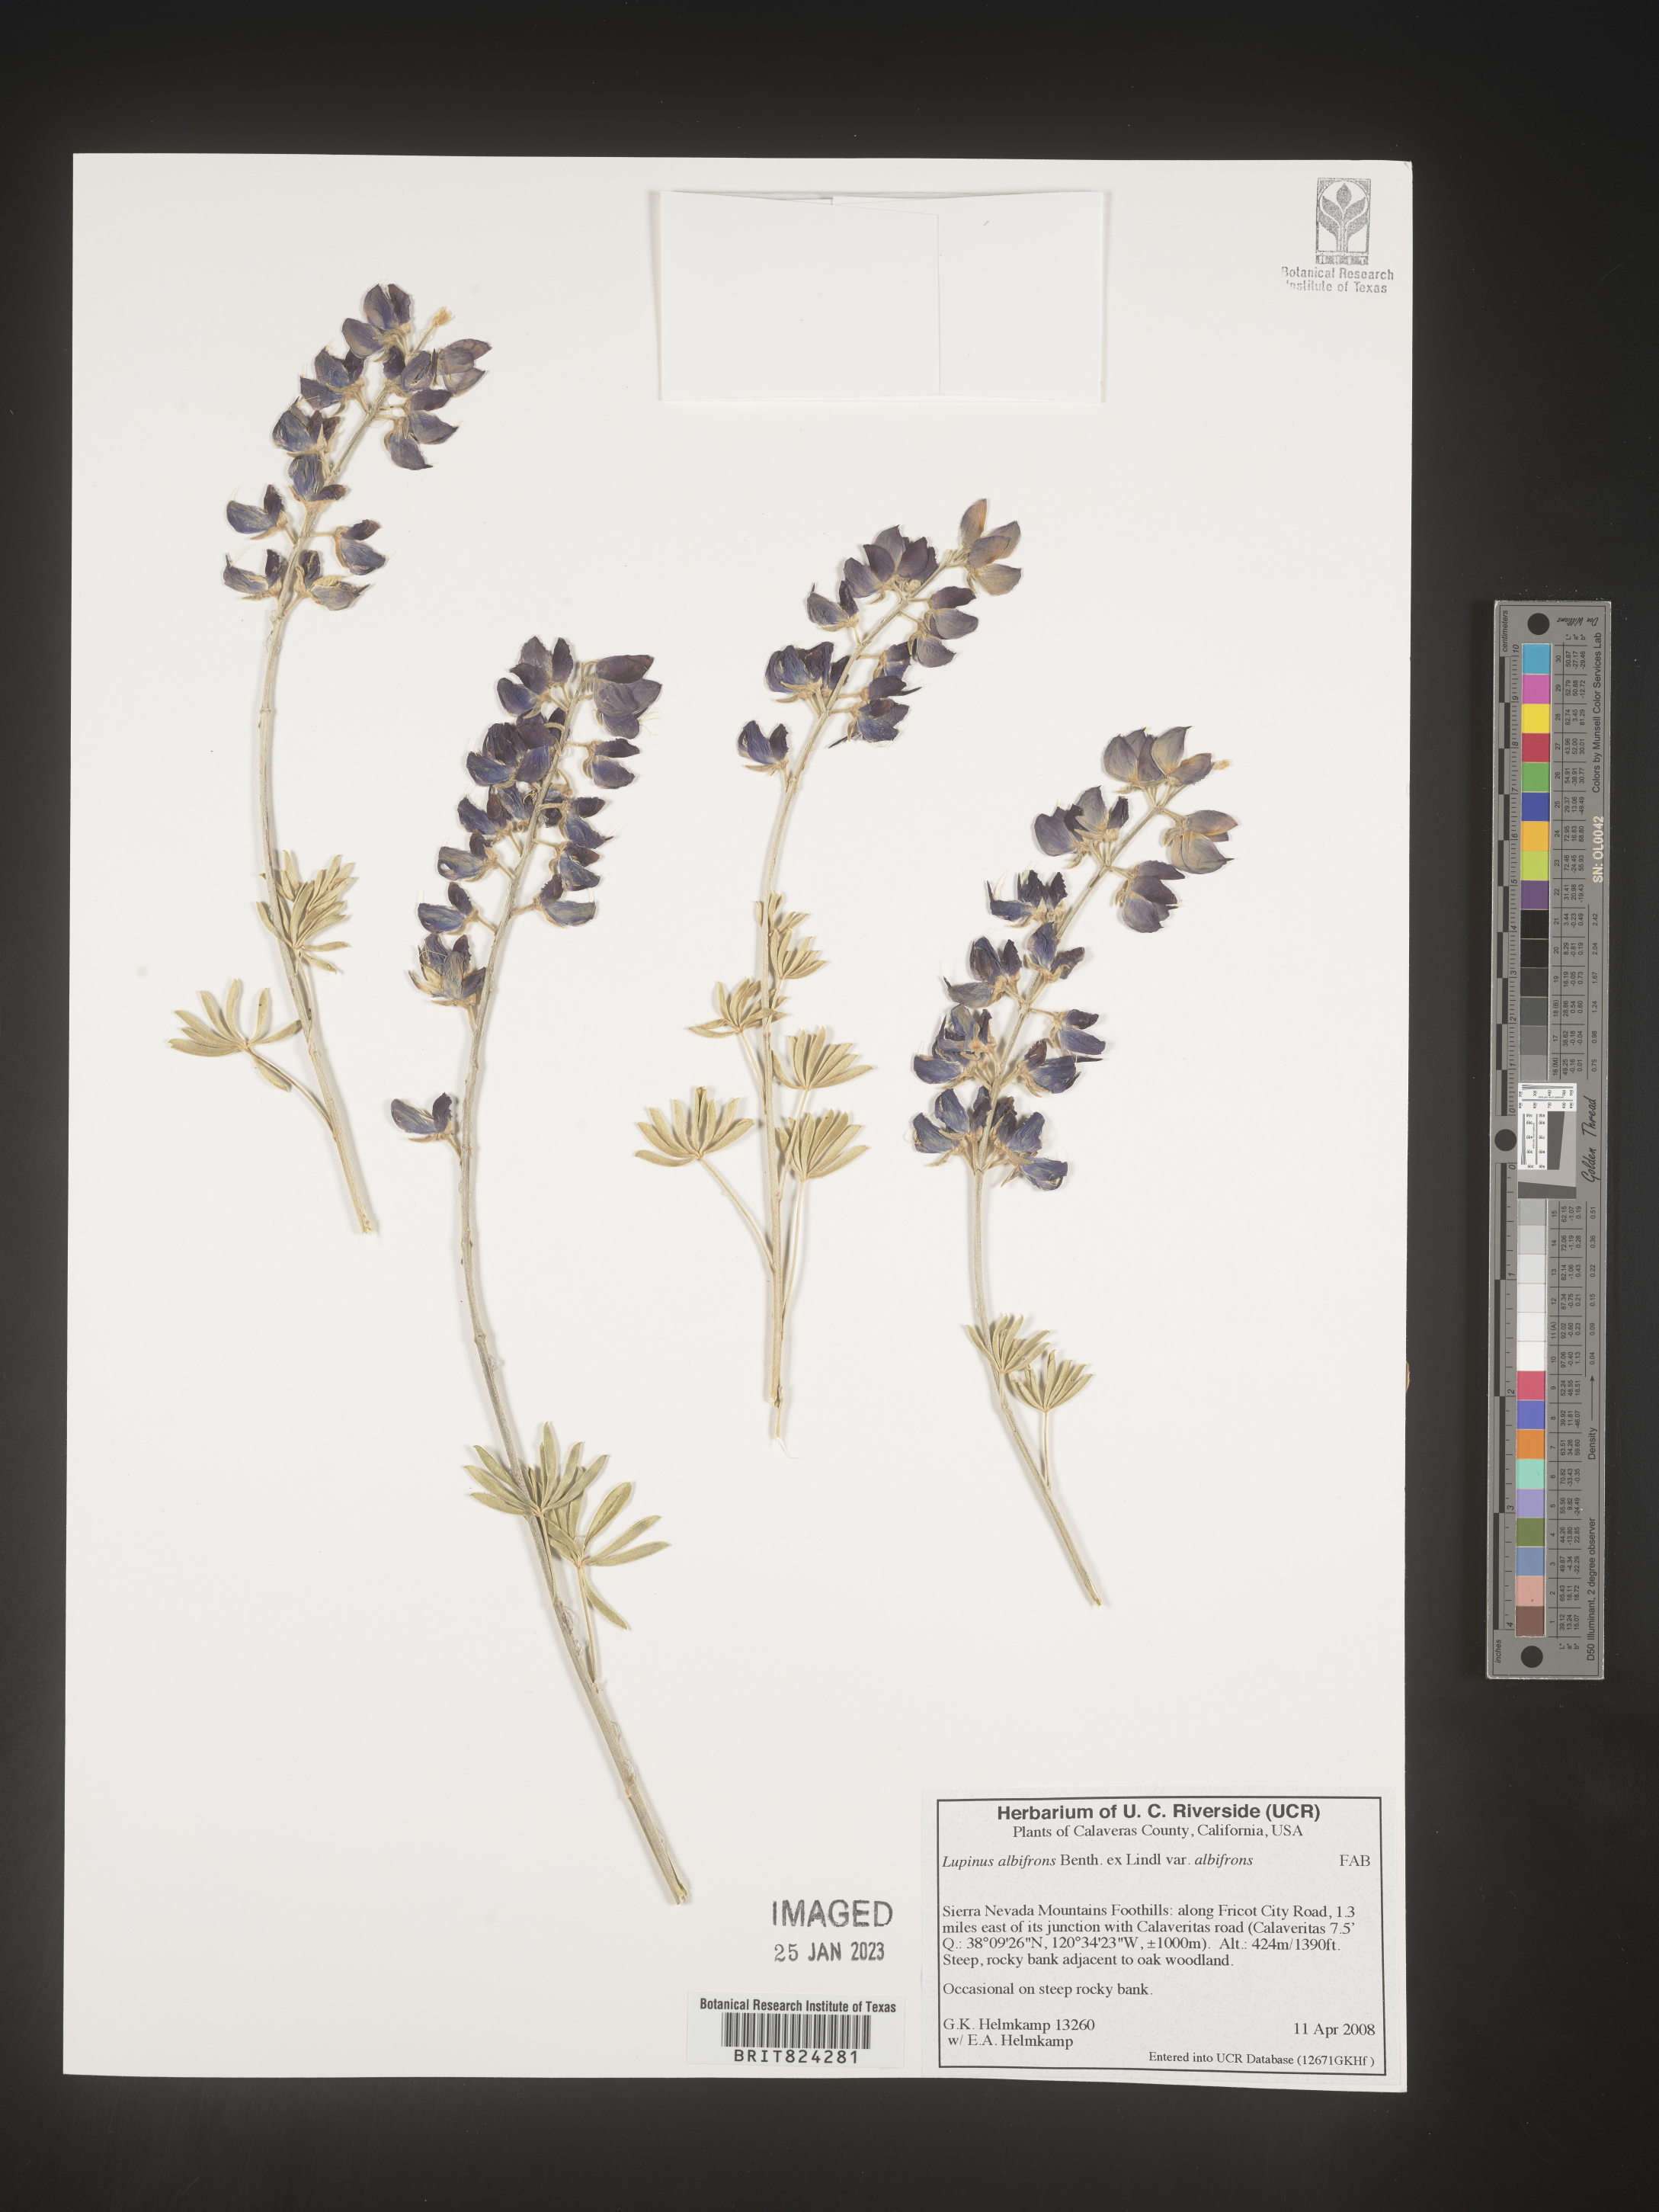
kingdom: Plantae
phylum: Tracheophyta
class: Magnoliopsida
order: Fabales
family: Fabaceae
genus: Lupinus
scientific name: Lupinus albifrons
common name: Foothill lupine
